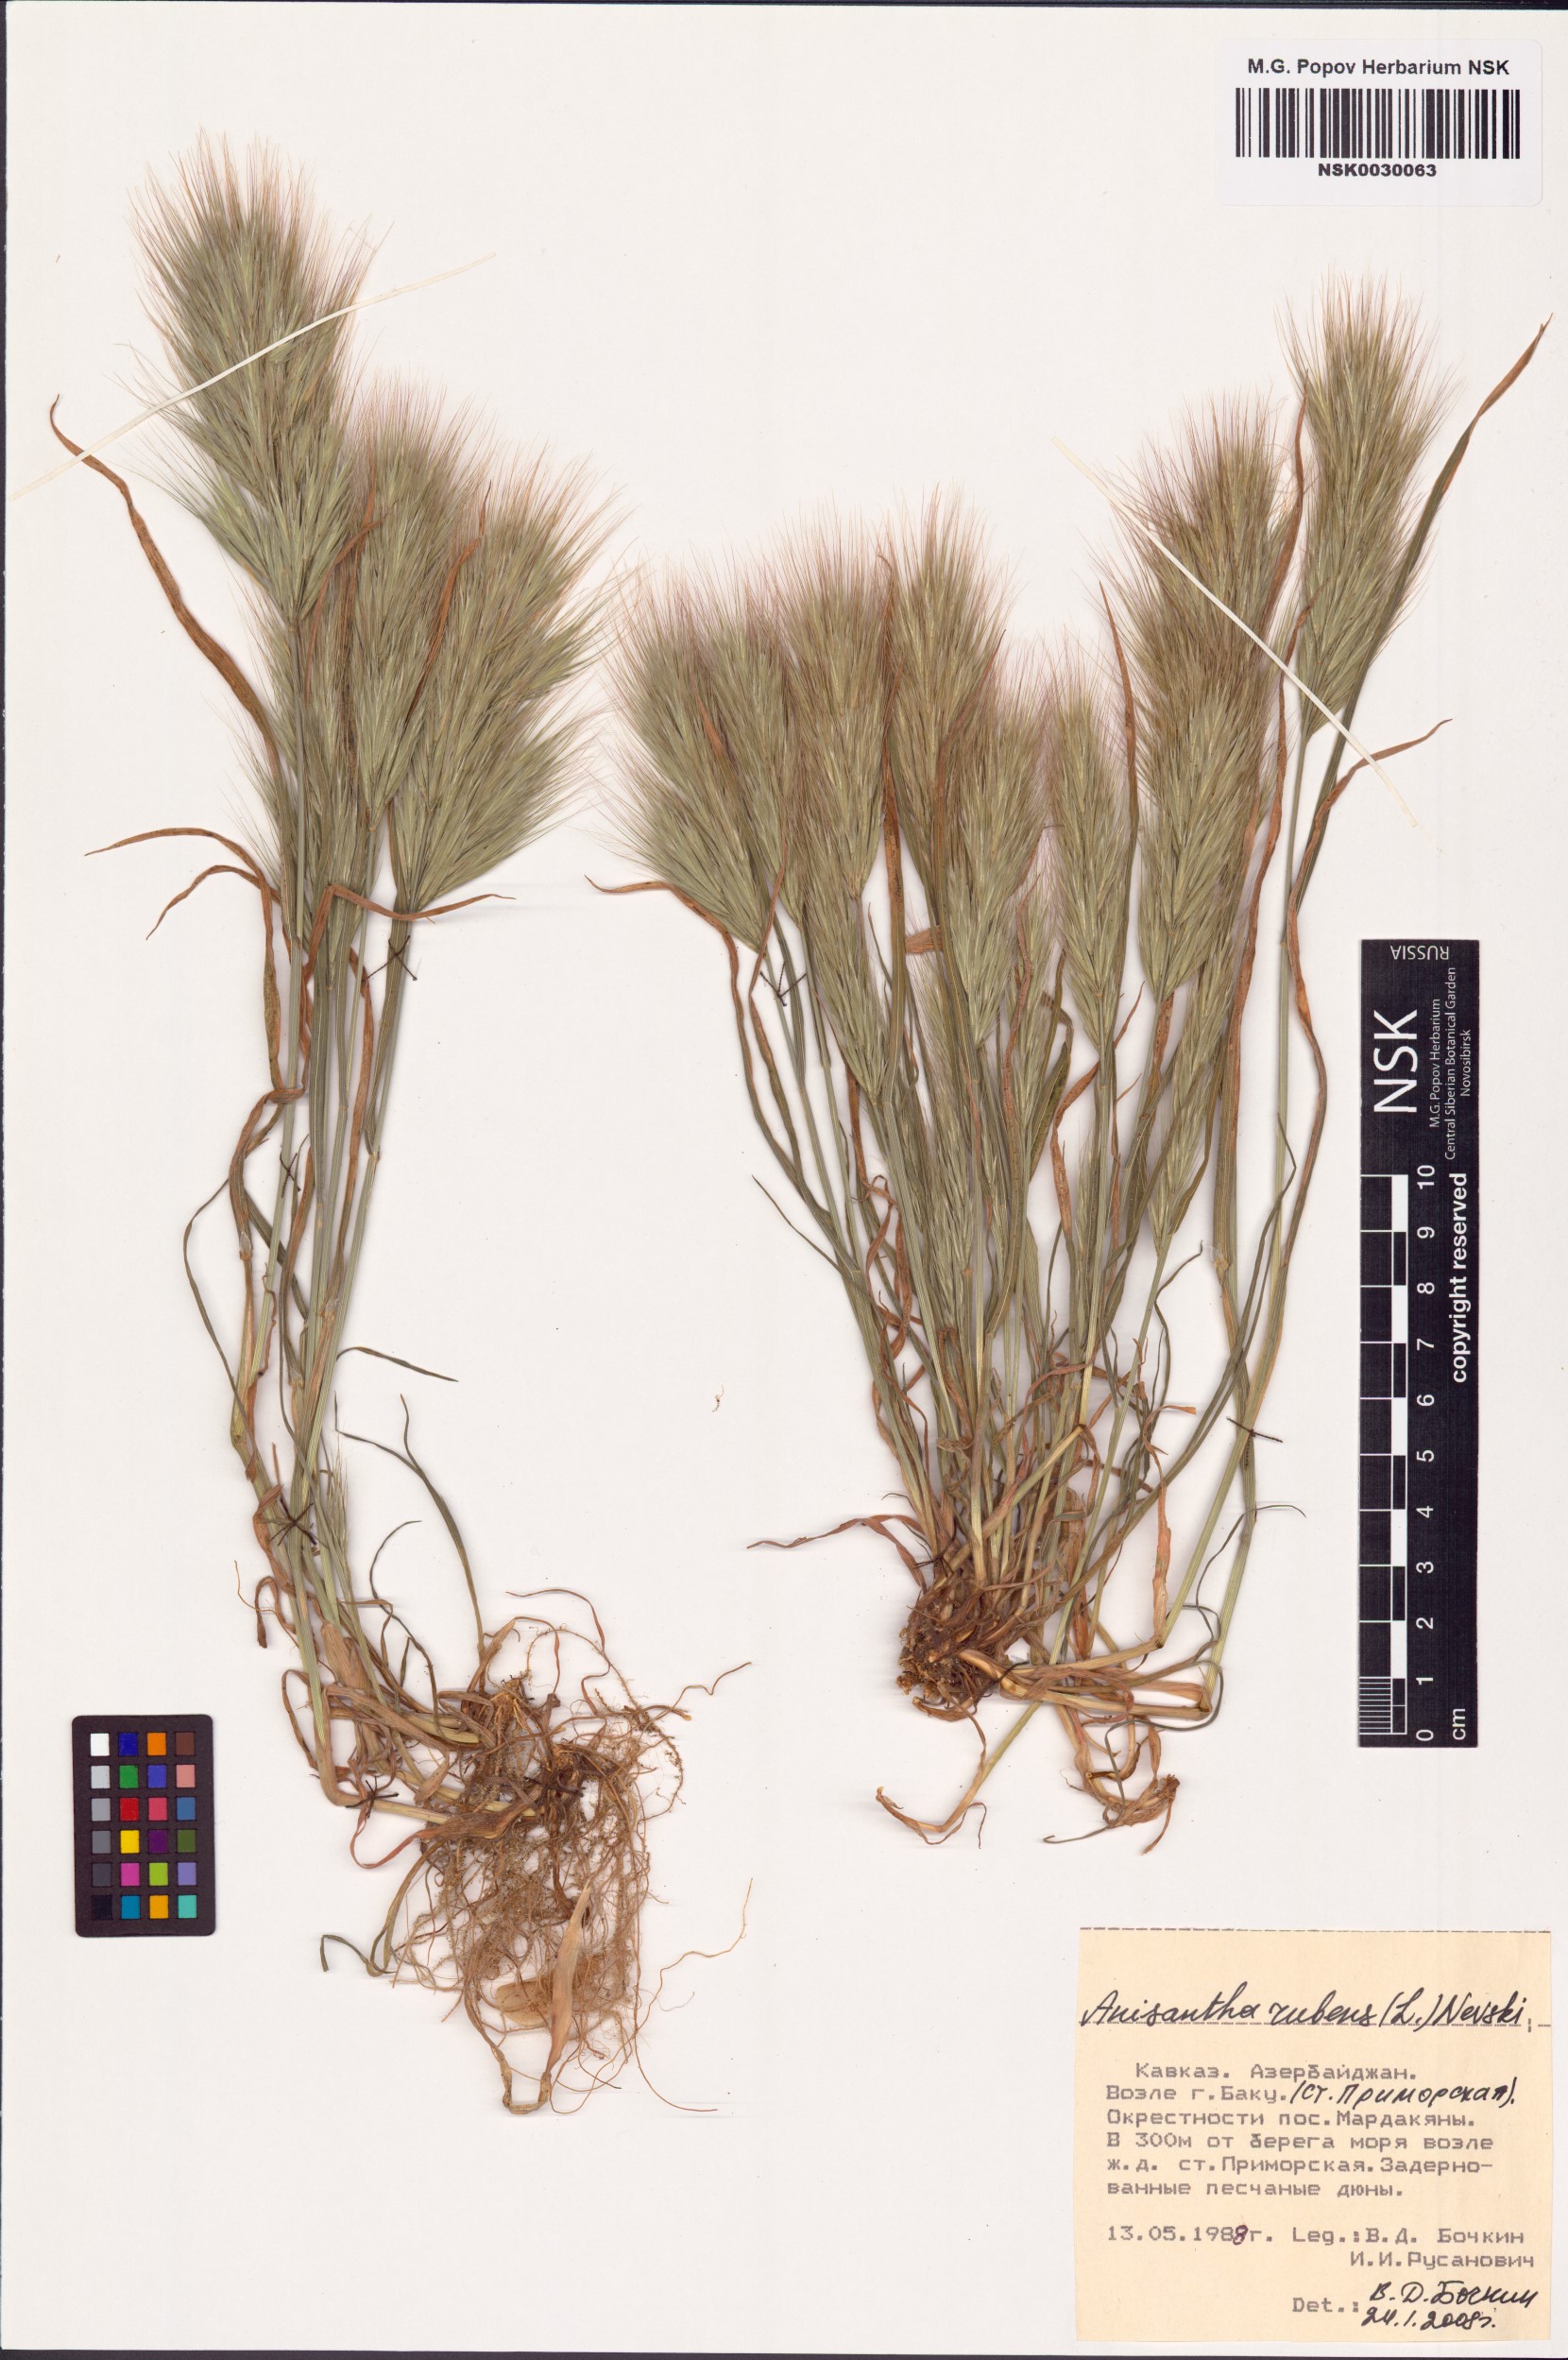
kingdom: Plantae
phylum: Tracheophyta
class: Liliopsida
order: Poales
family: Poaceae
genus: Bromus
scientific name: Bromus rubens
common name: Red brome
